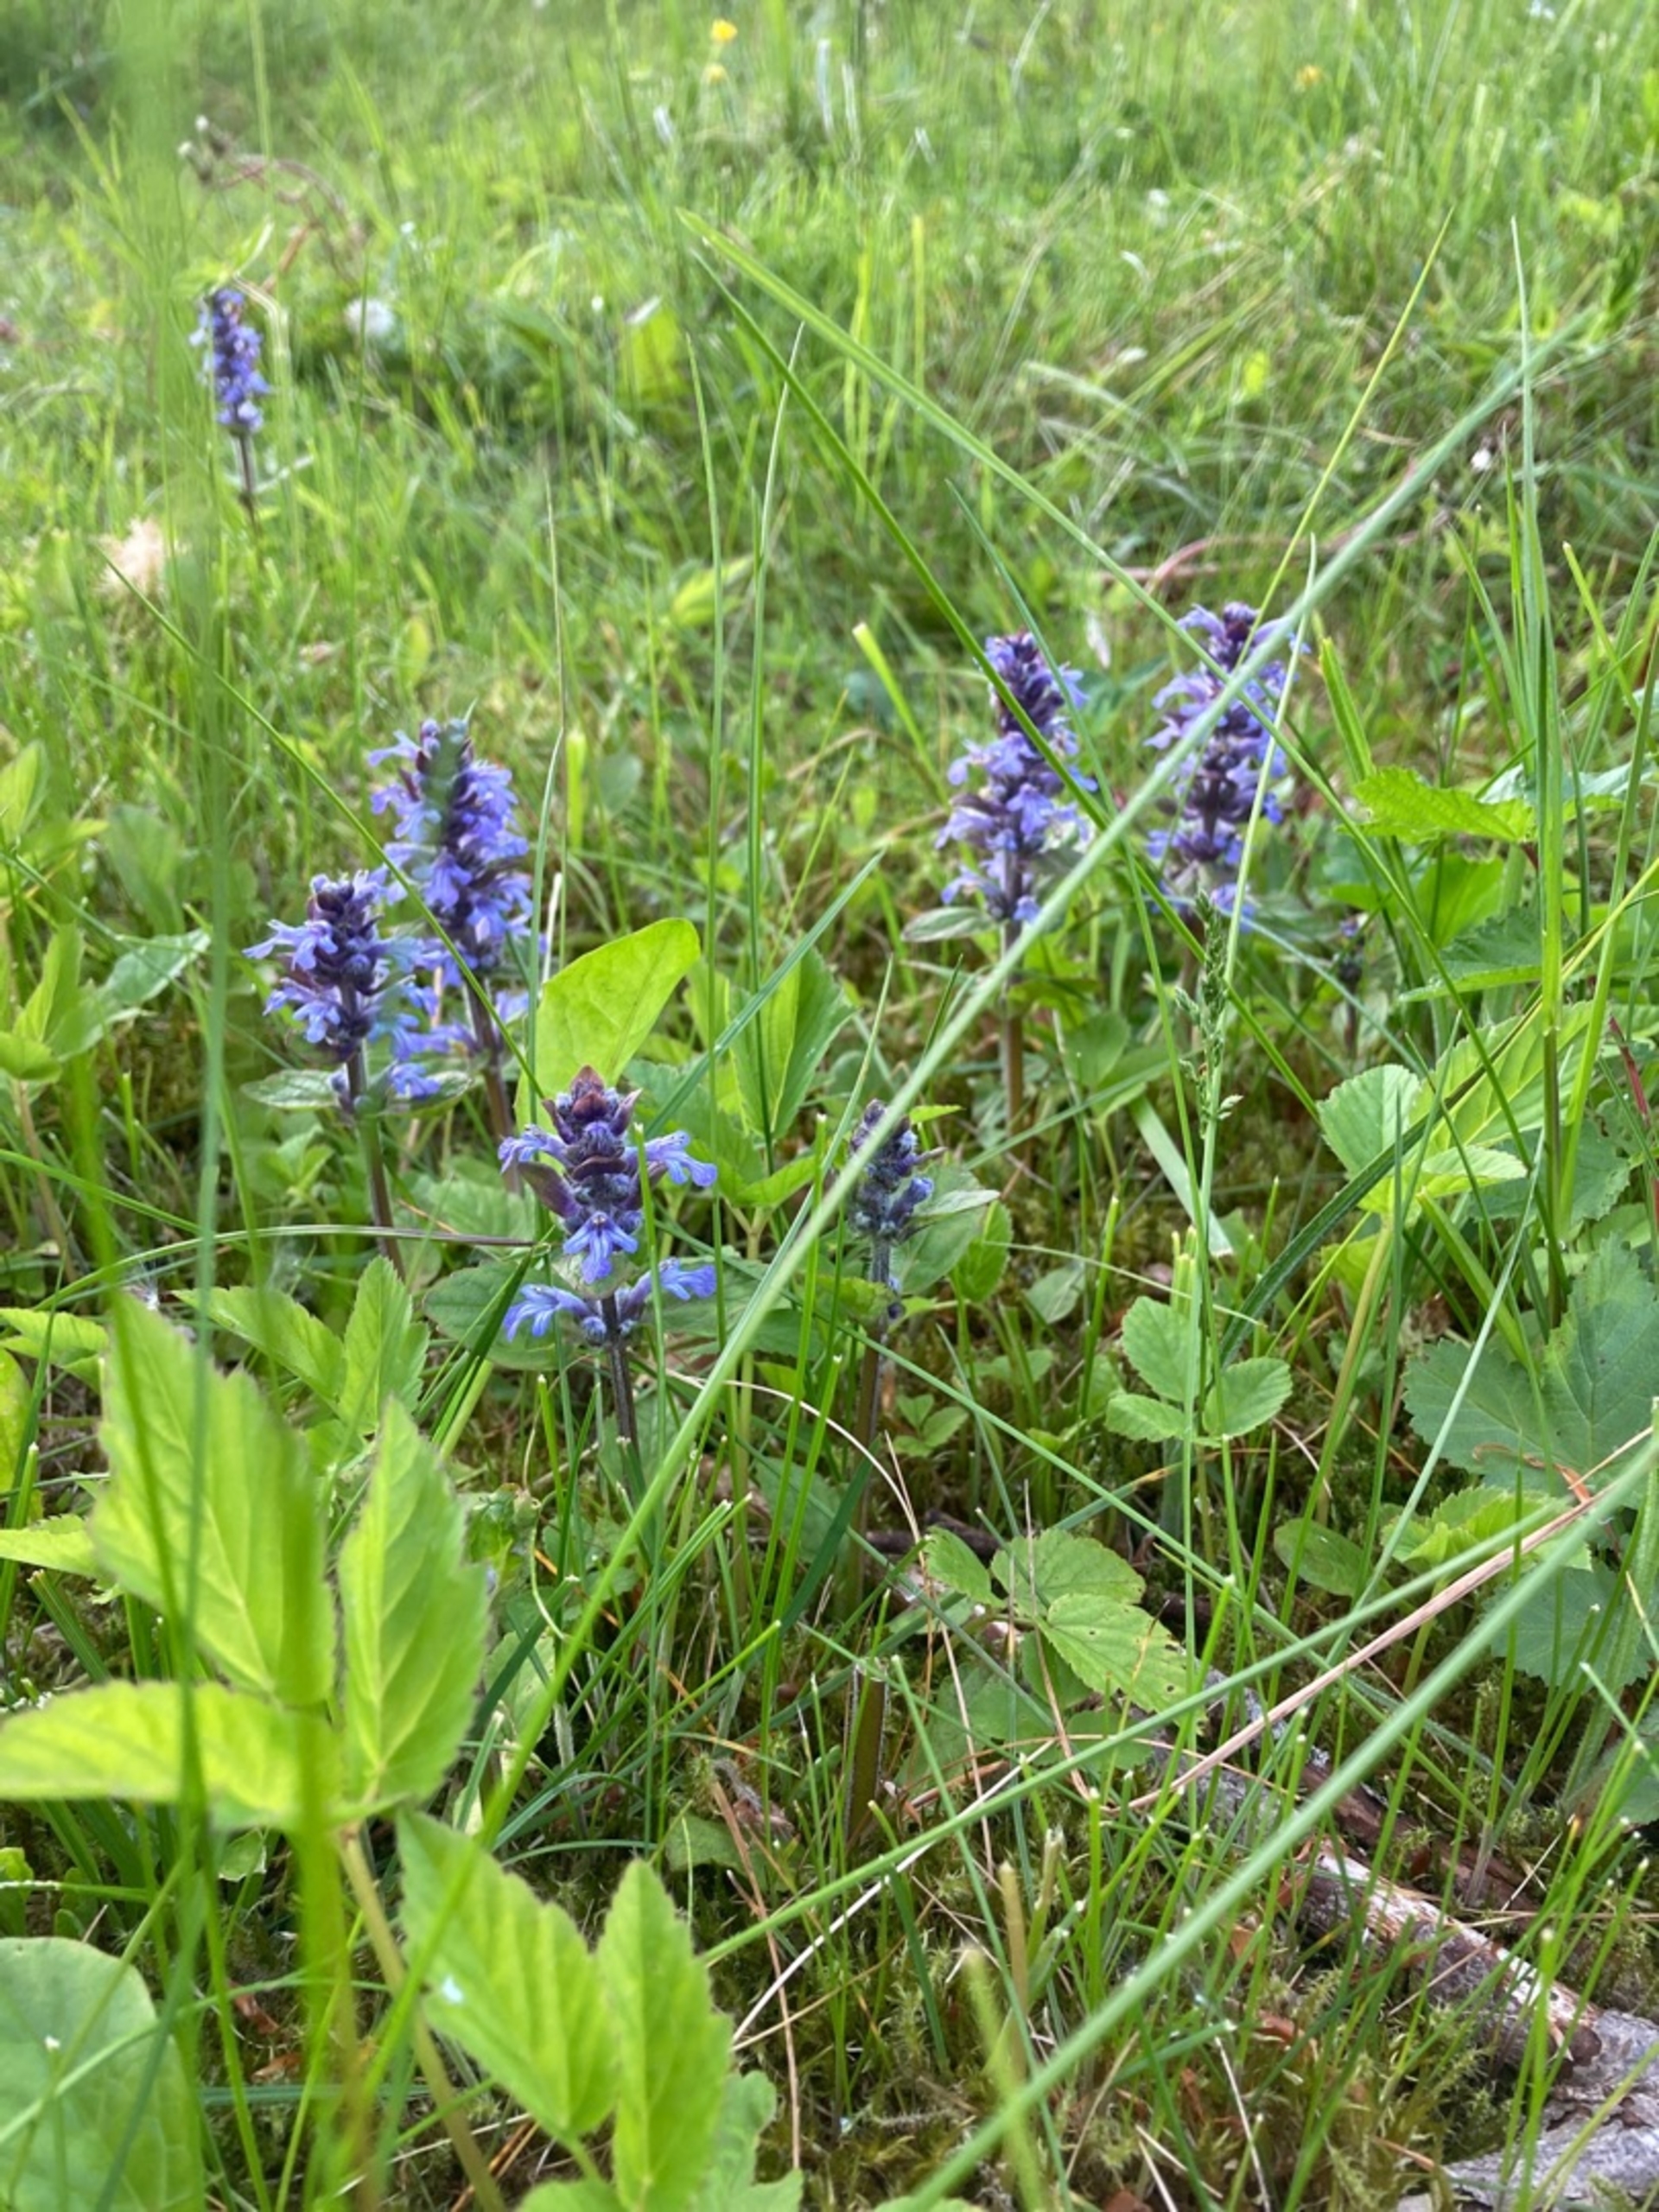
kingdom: Plantae
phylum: Tracheophyta
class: Magnoliopsida
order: Lamiales
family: Lamiaceae
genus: Ajuga
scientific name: Ajuga reptans
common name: Krybende læbeløs
